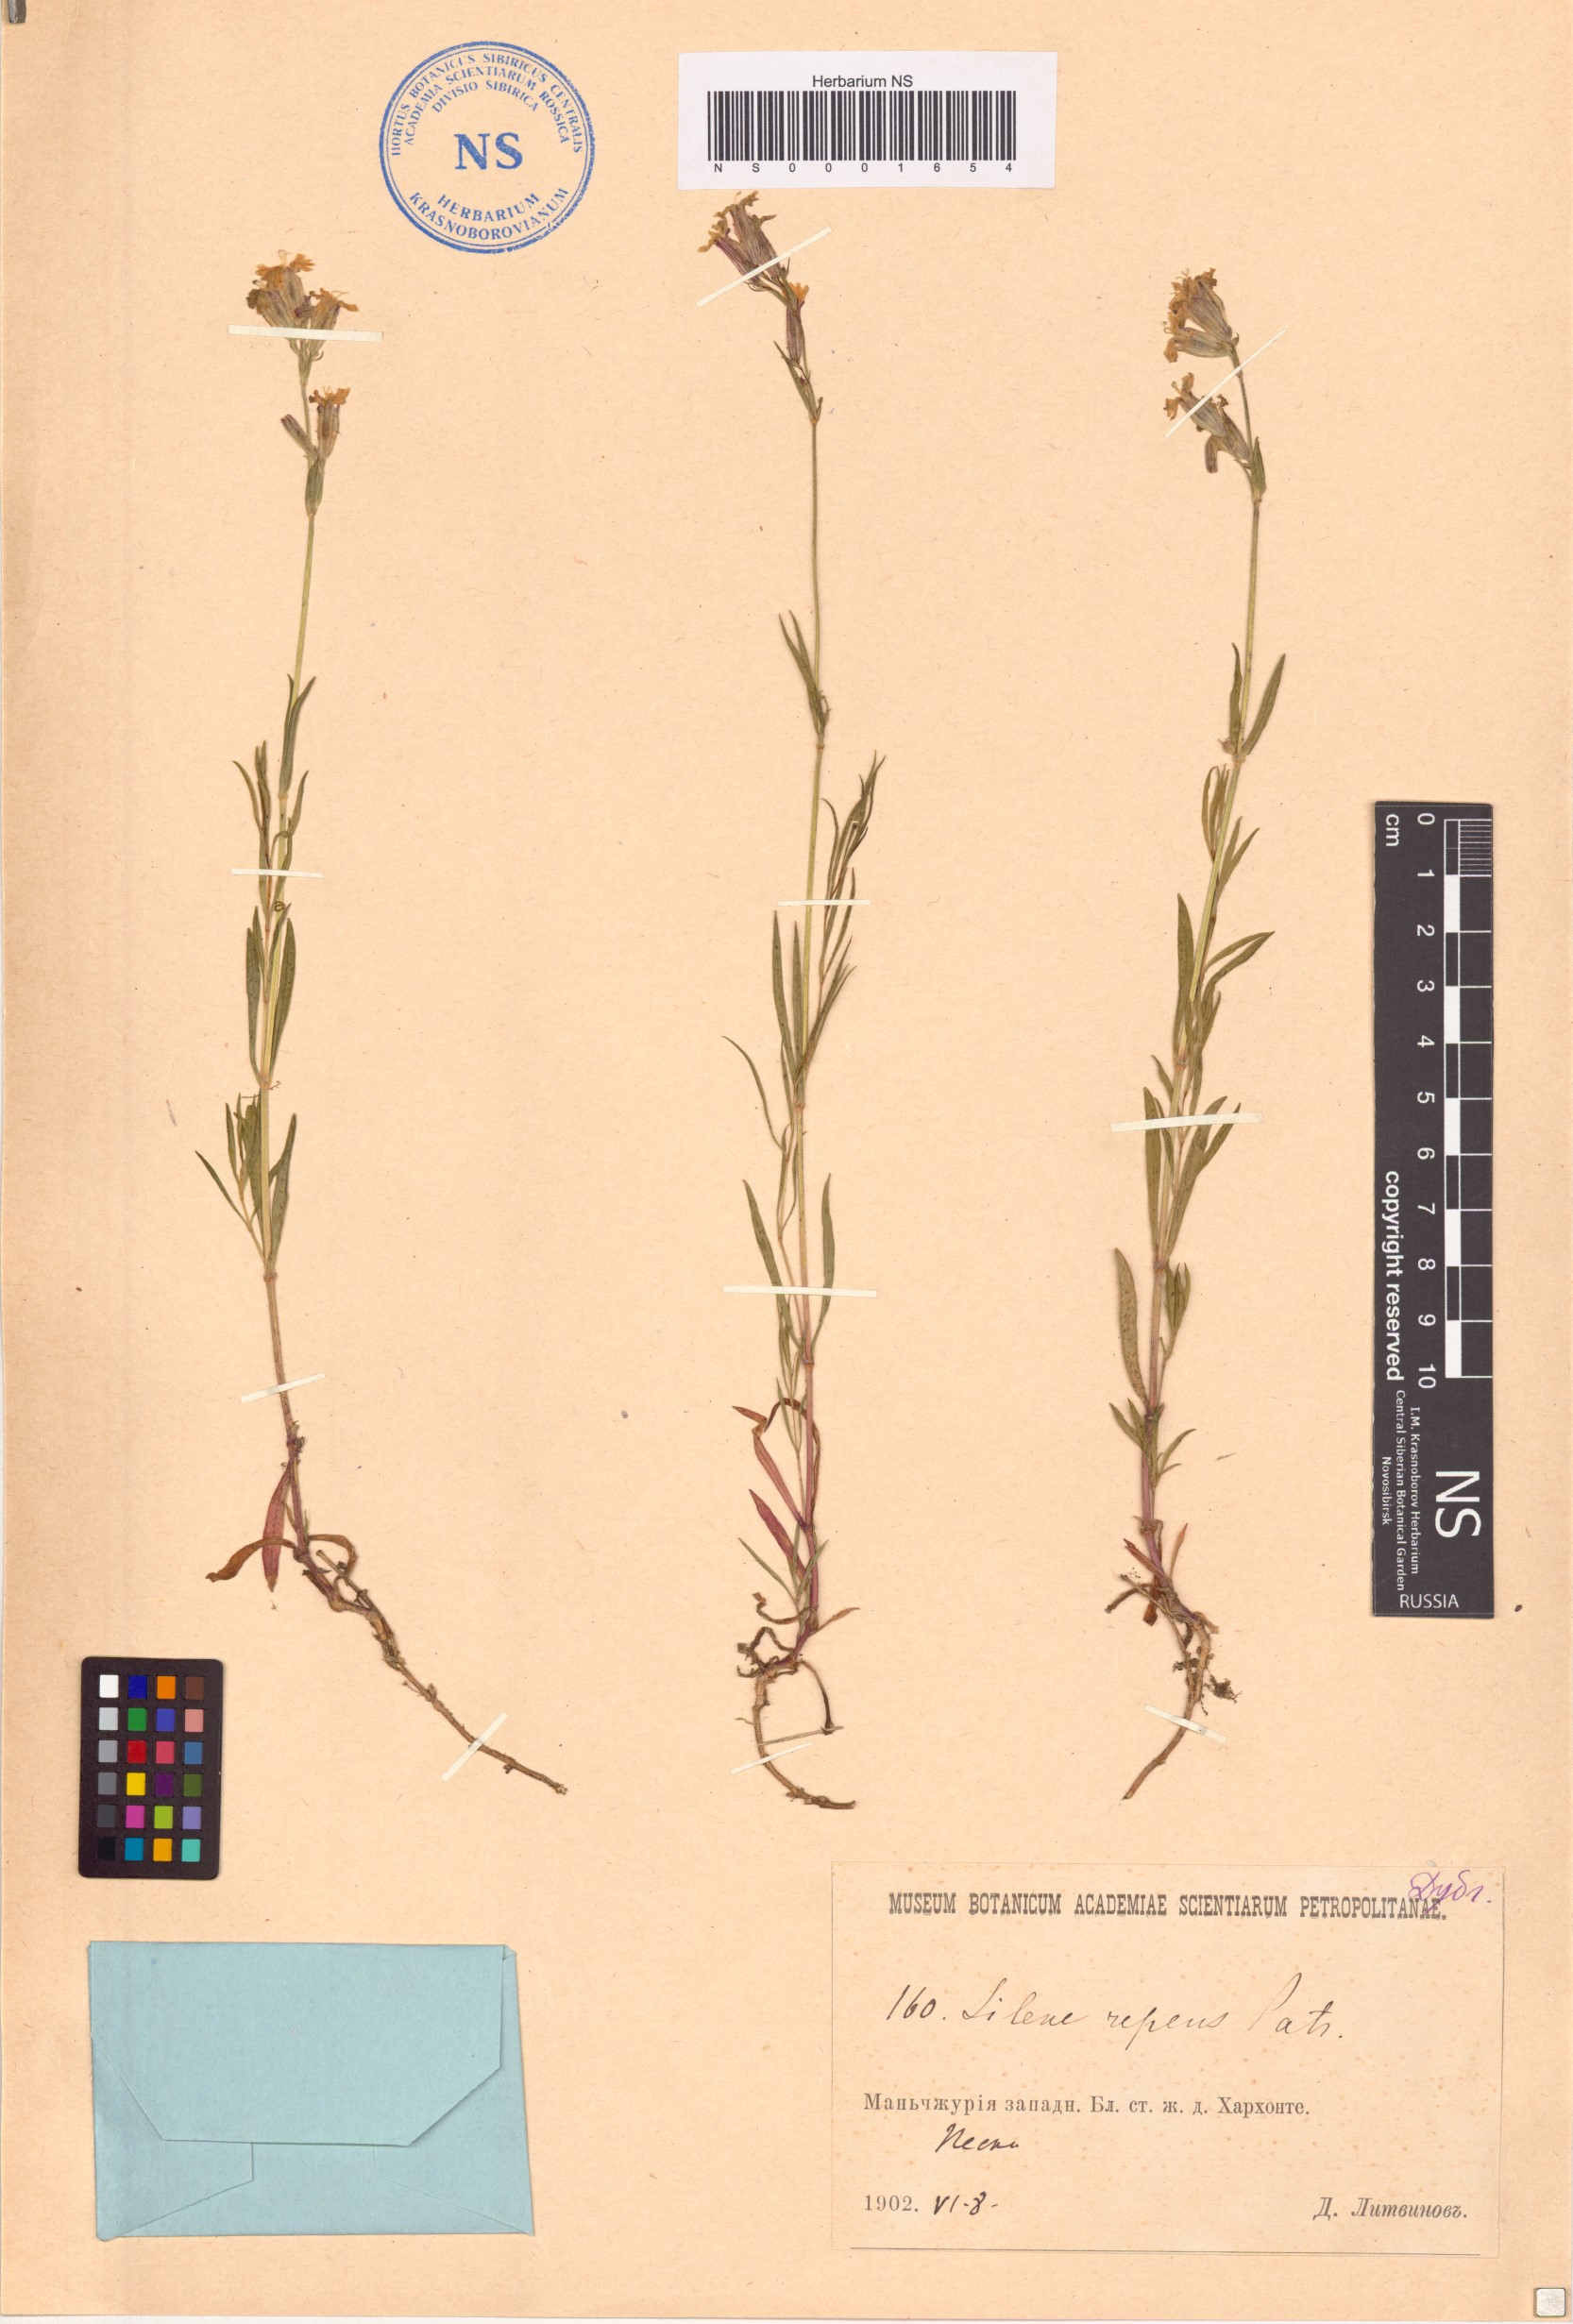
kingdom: Plantae
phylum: Tracheophyta
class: Magnoliopsida
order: Caryophyllales
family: Caryophyllaceae
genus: Silene
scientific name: Silene repens
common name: Pink campion
